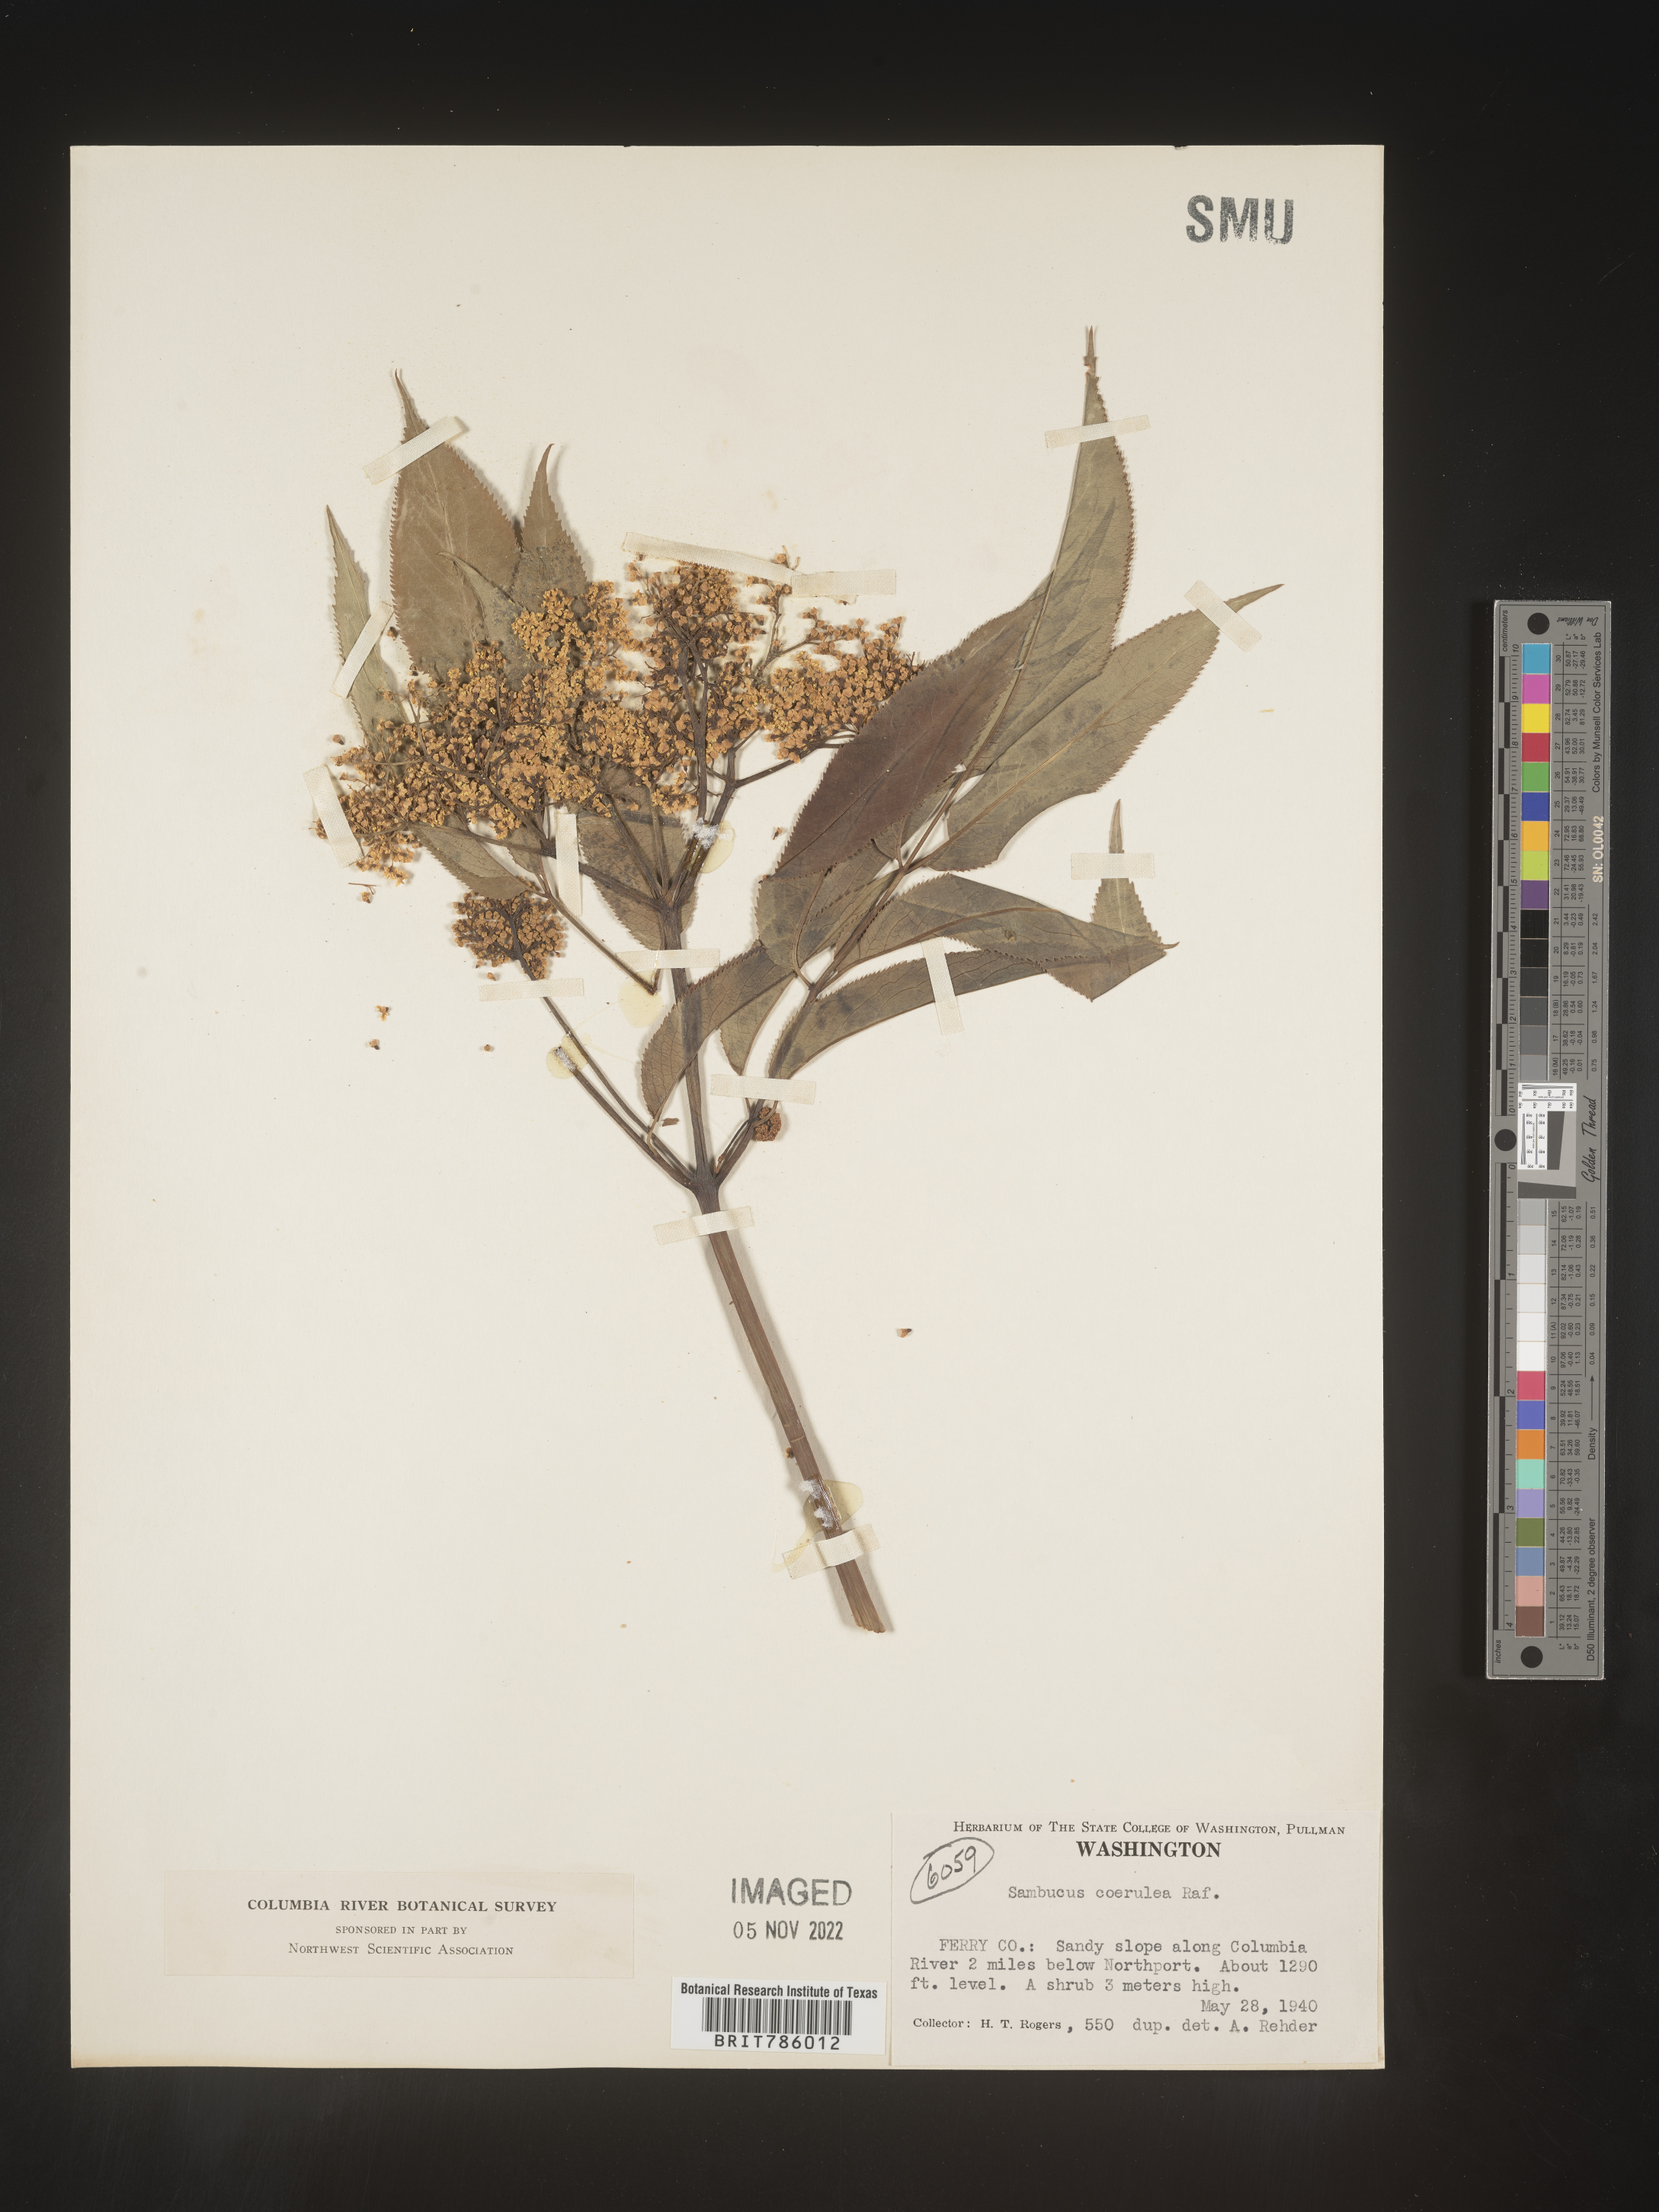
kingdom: Plantae
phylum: Tracheophyta
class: Magnoliopsida
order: Dipsacales
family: Viburnaceae
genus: Sambucus
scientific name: Sambucus caerulea
